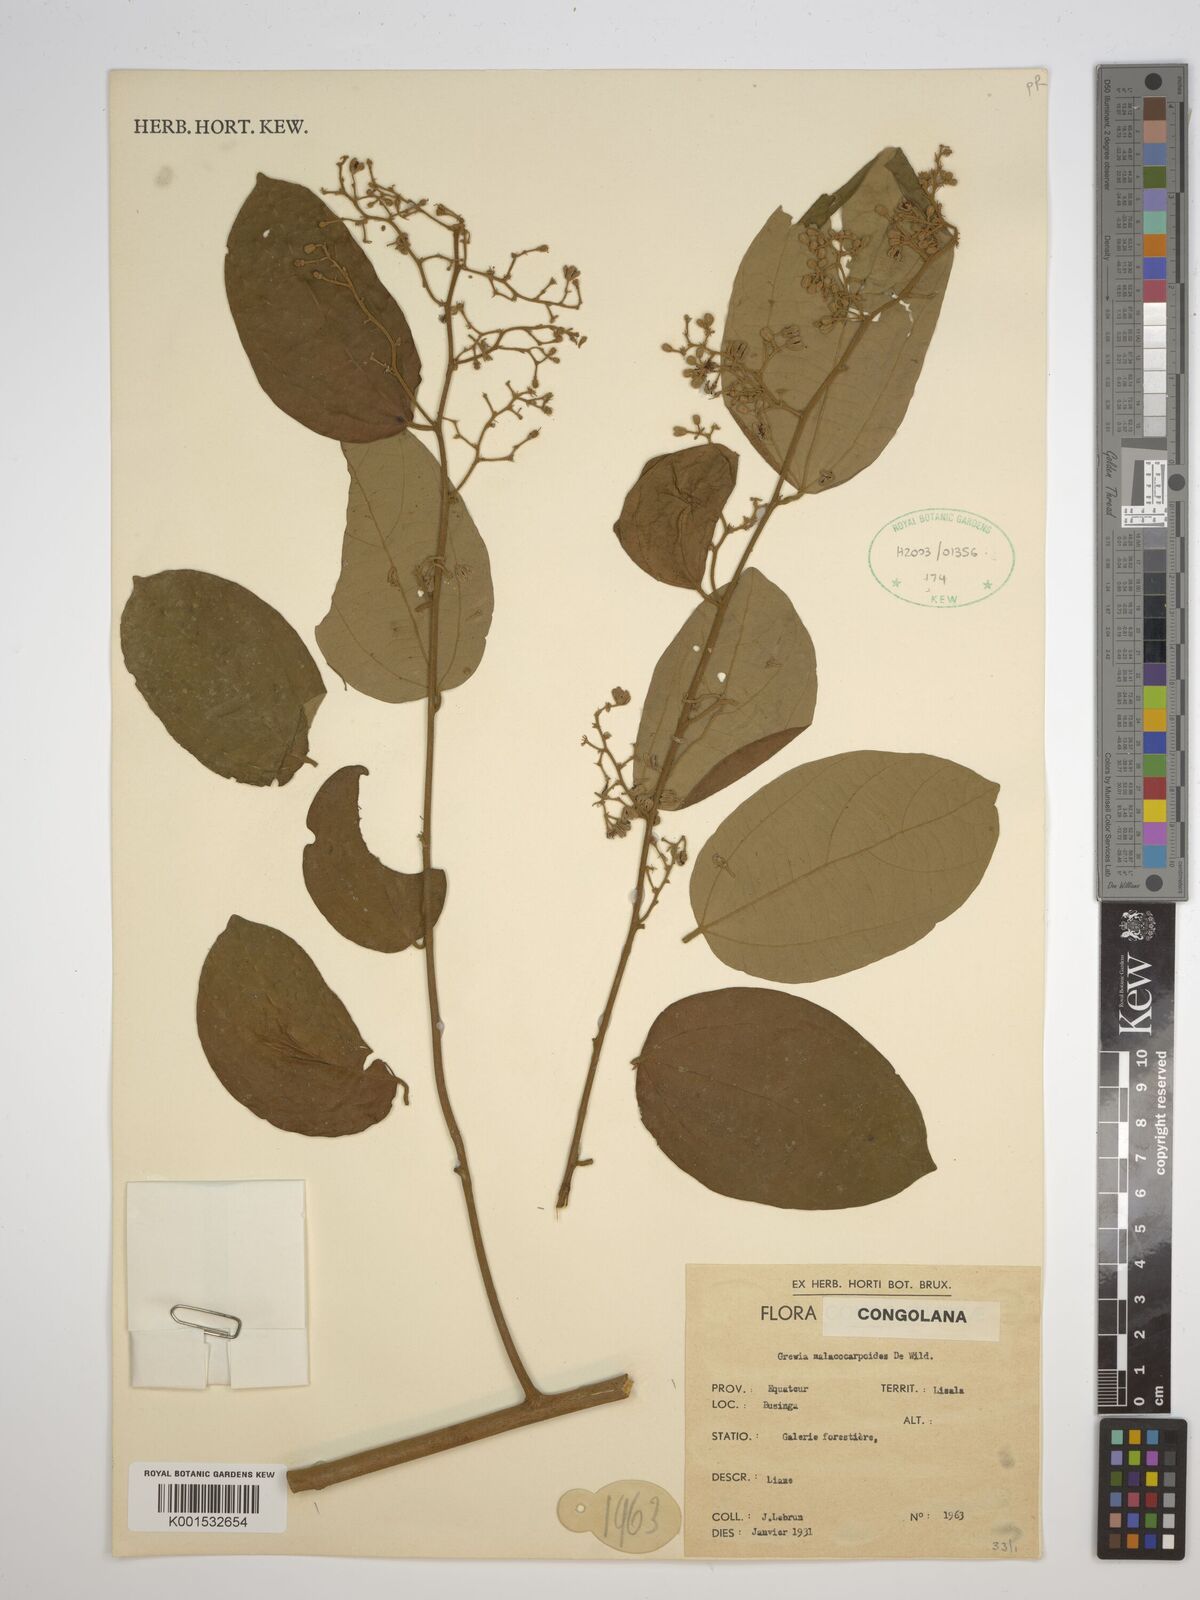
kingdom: Plantae
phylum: Tracheophyta
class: Magnoliopsida
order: Malvales
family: Malvaceae
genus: Microcos
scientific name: Microcos malacocarpa
